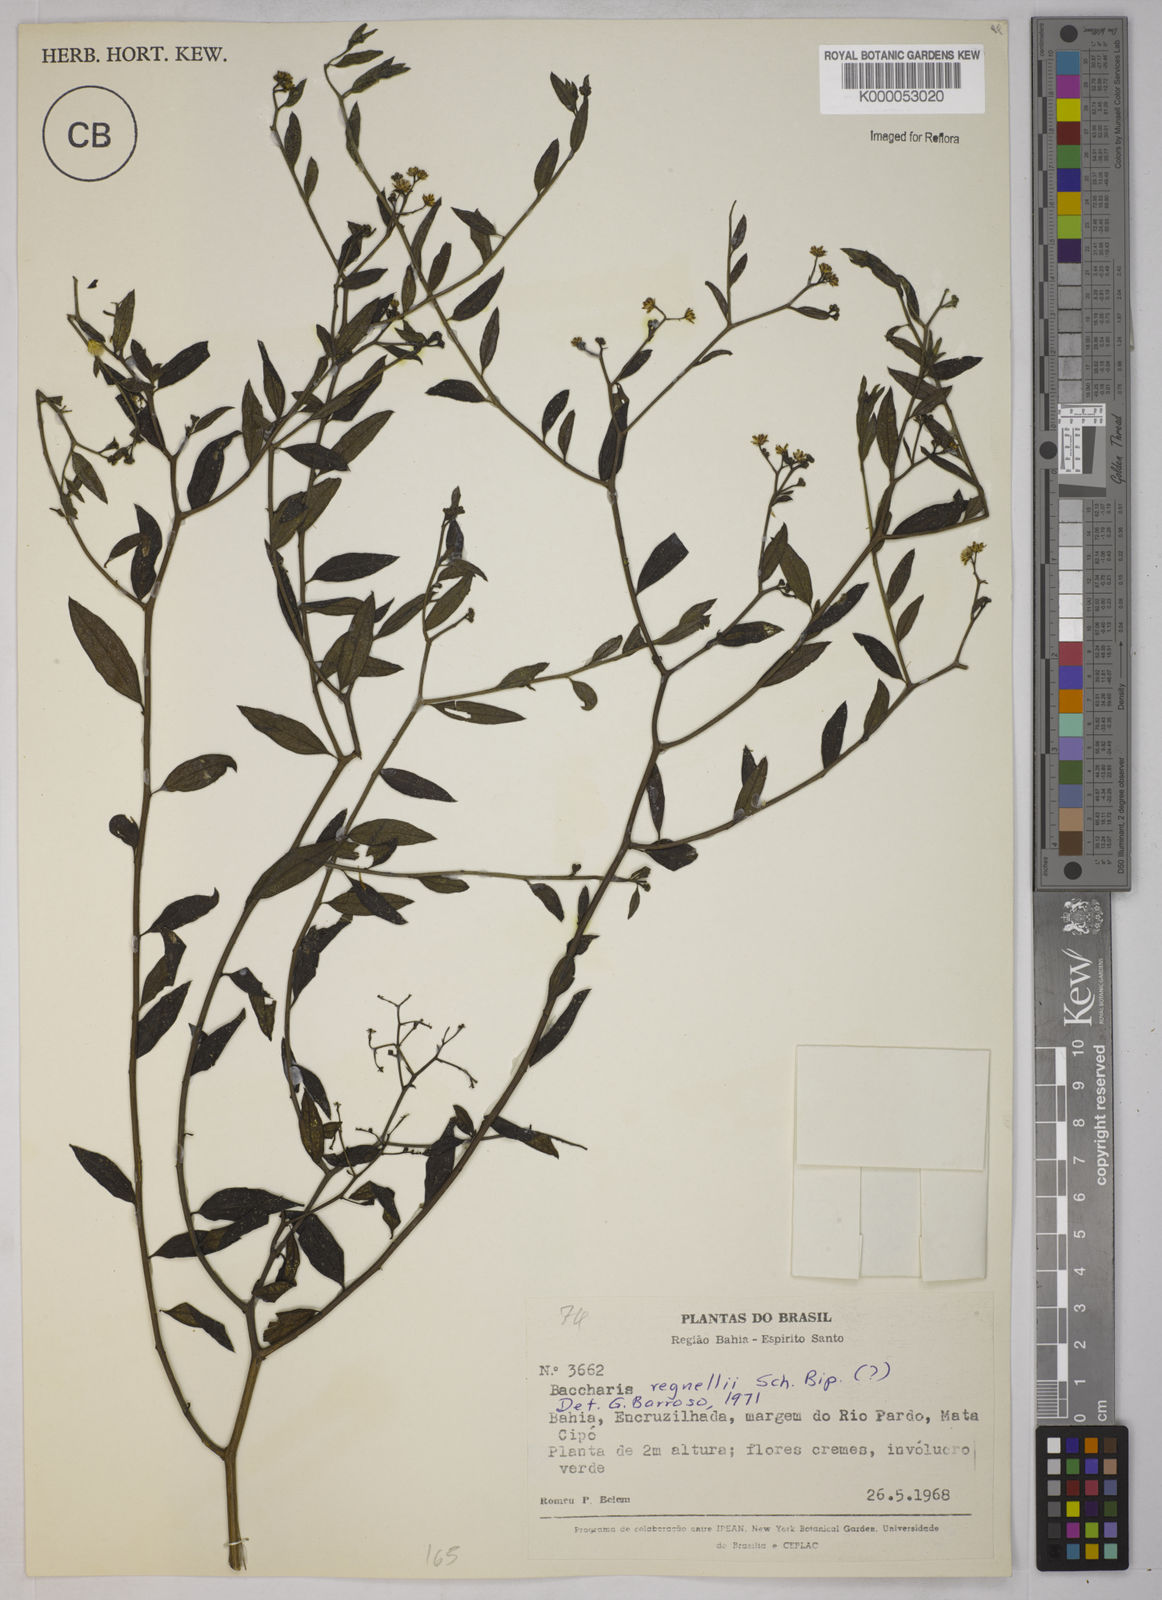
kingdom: Plantae
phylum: Tracheophyta
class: Magnoliopsida
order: Asterales
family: Asteraceae
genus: Baccharis
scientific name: Baccharis trinervis
